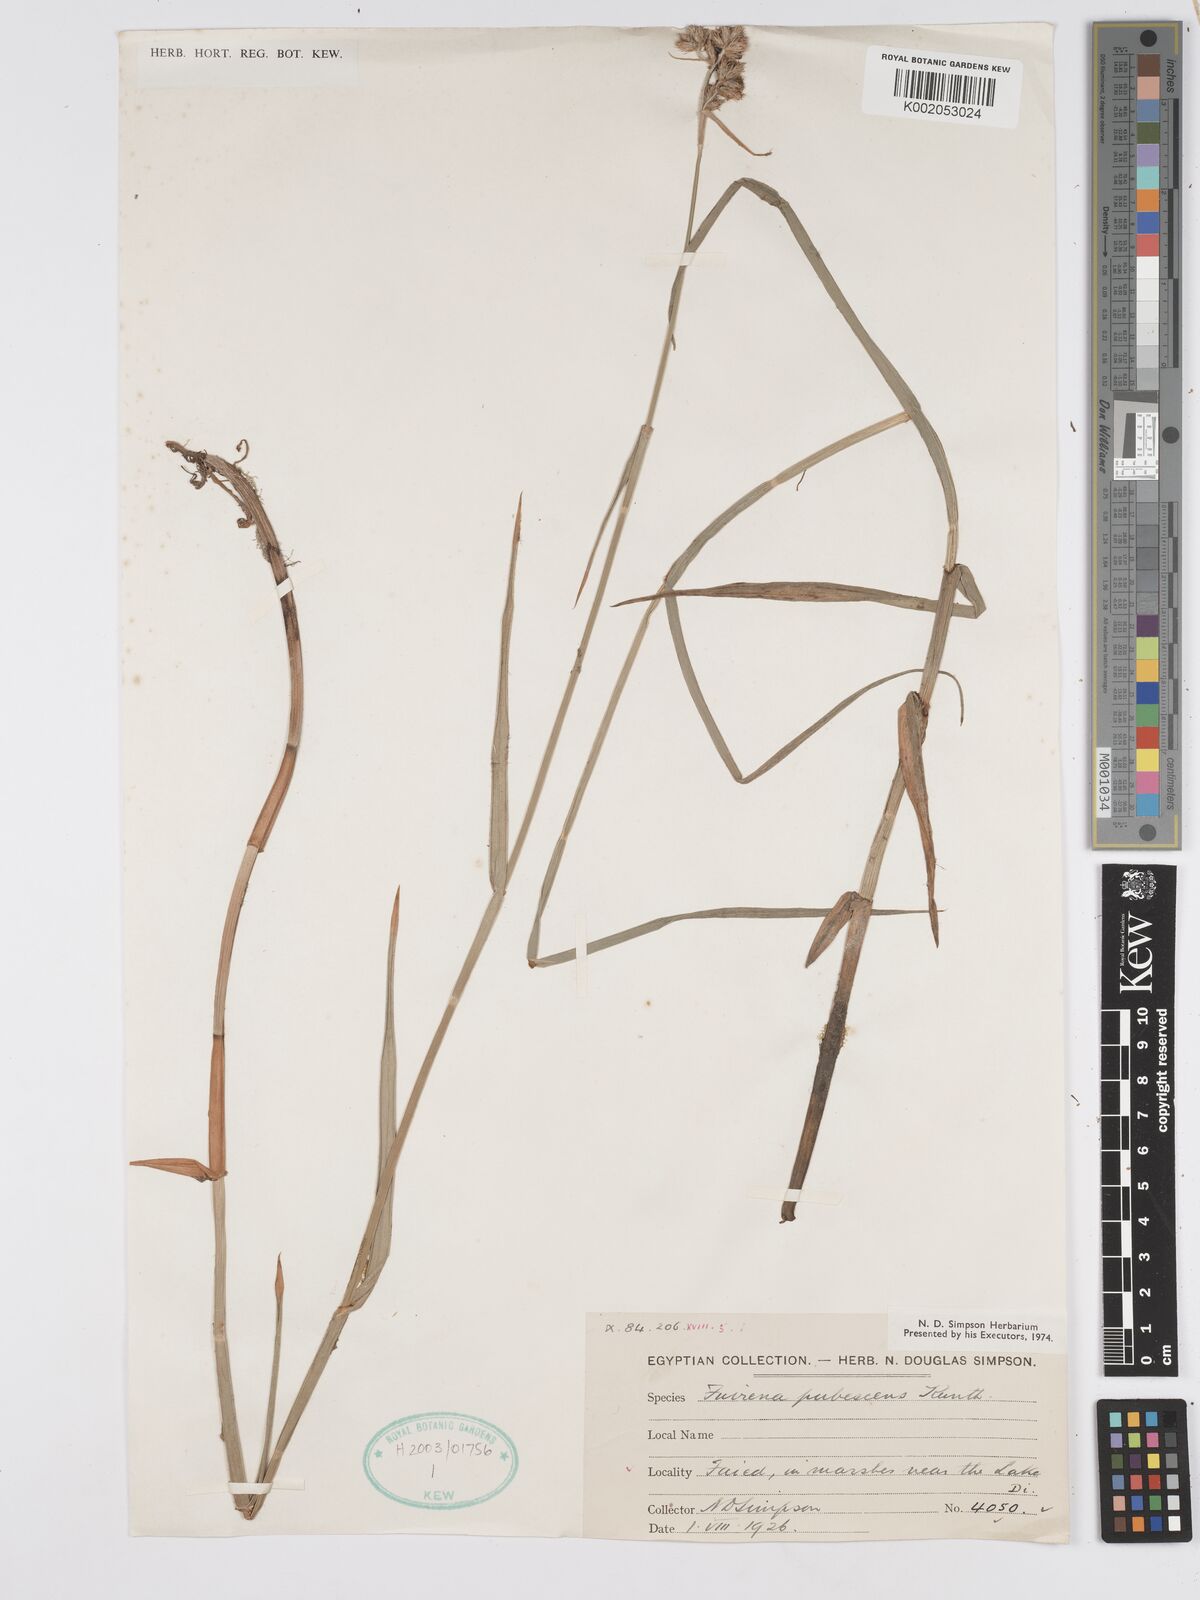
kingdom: Plantae
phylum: Tracheophyta
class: Liliopsida
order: Poales
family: Cyperaceae
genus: Fuirena
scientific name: Fuirena pubescens
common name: Hairy sedge
